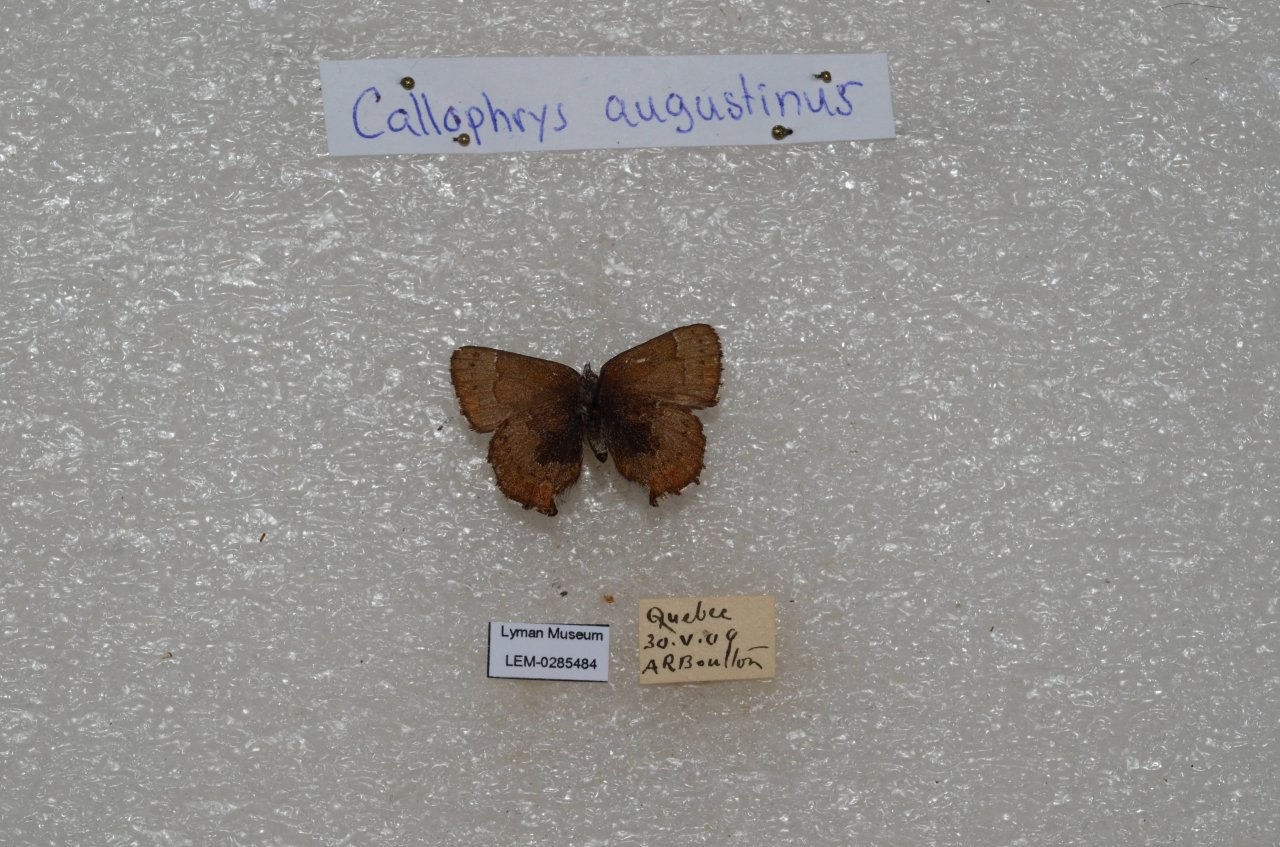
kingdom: Animalia
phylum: Arthropoda
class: Insecta
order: Lepidoptera
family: Lycaenidae
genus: Incisalia
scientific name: Incisalia irioides
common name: Brown Elfin
